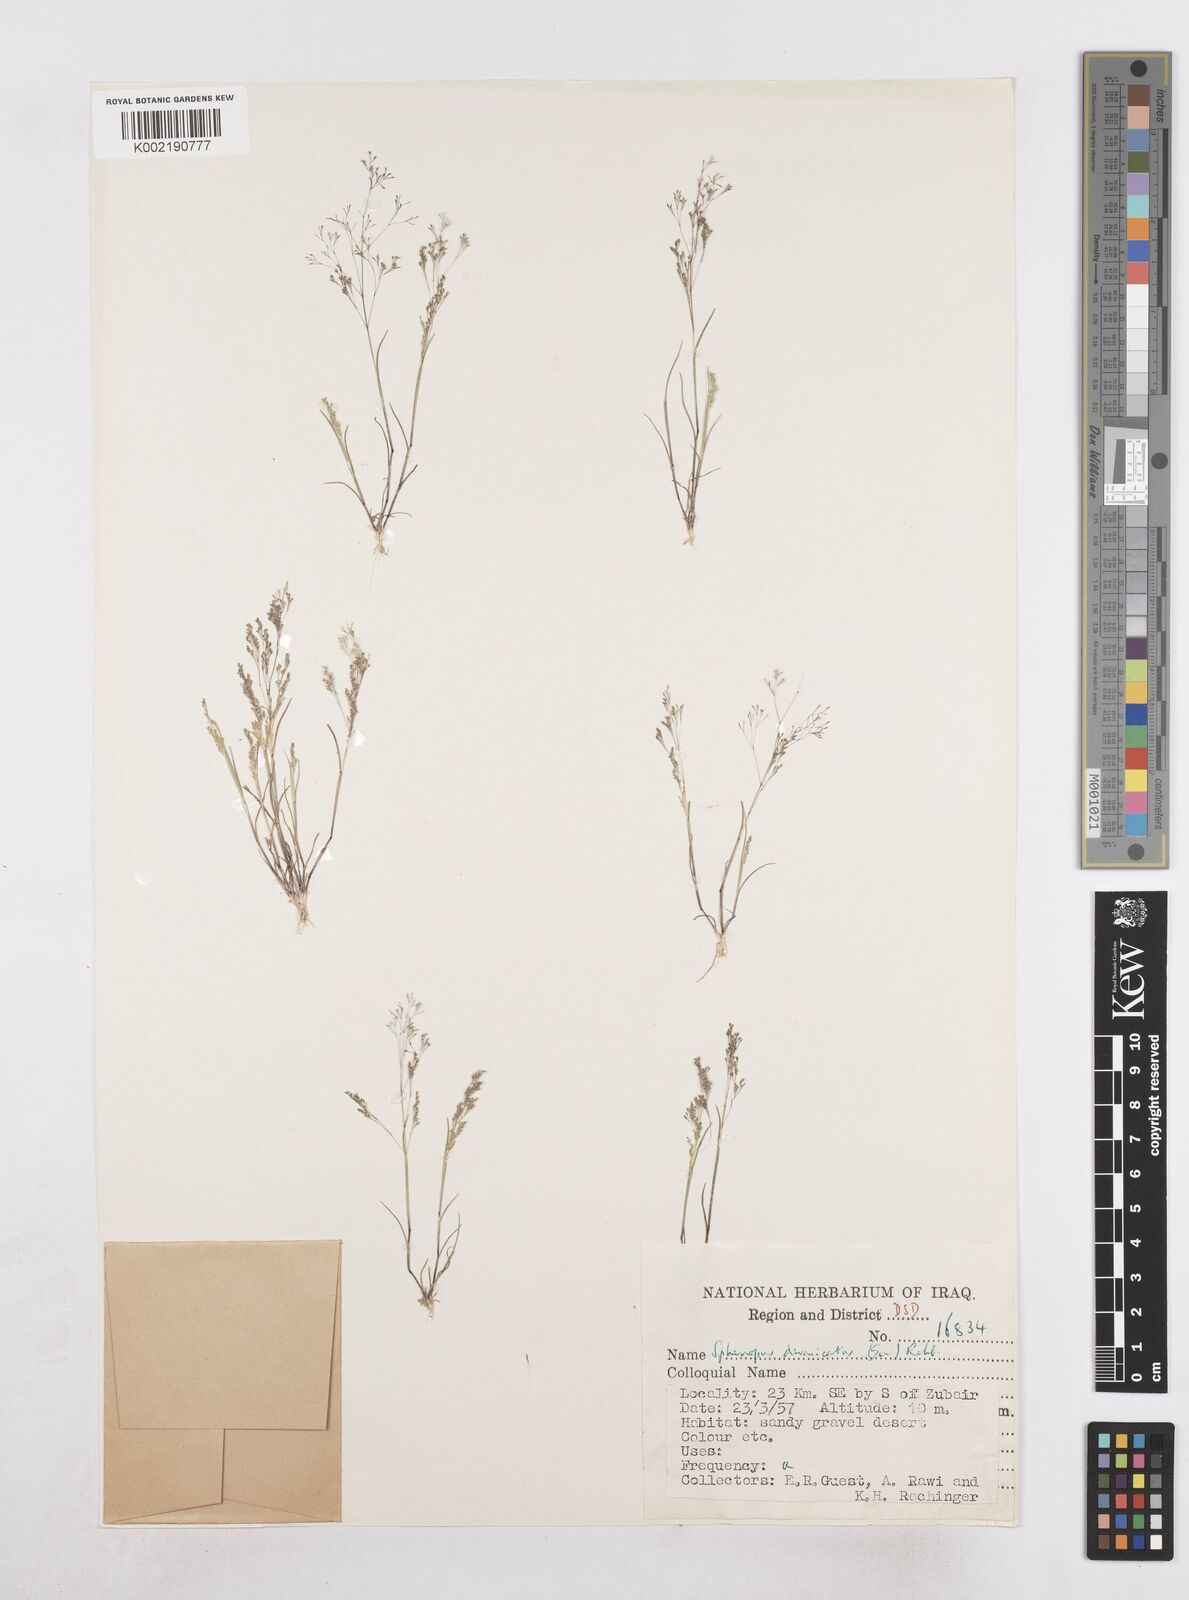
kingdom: Plantae
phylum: Tracheophyta
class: Liliopsida
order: Poales
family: Poaceae
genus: Sphenopus
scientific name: Sphenopus divaricatus
